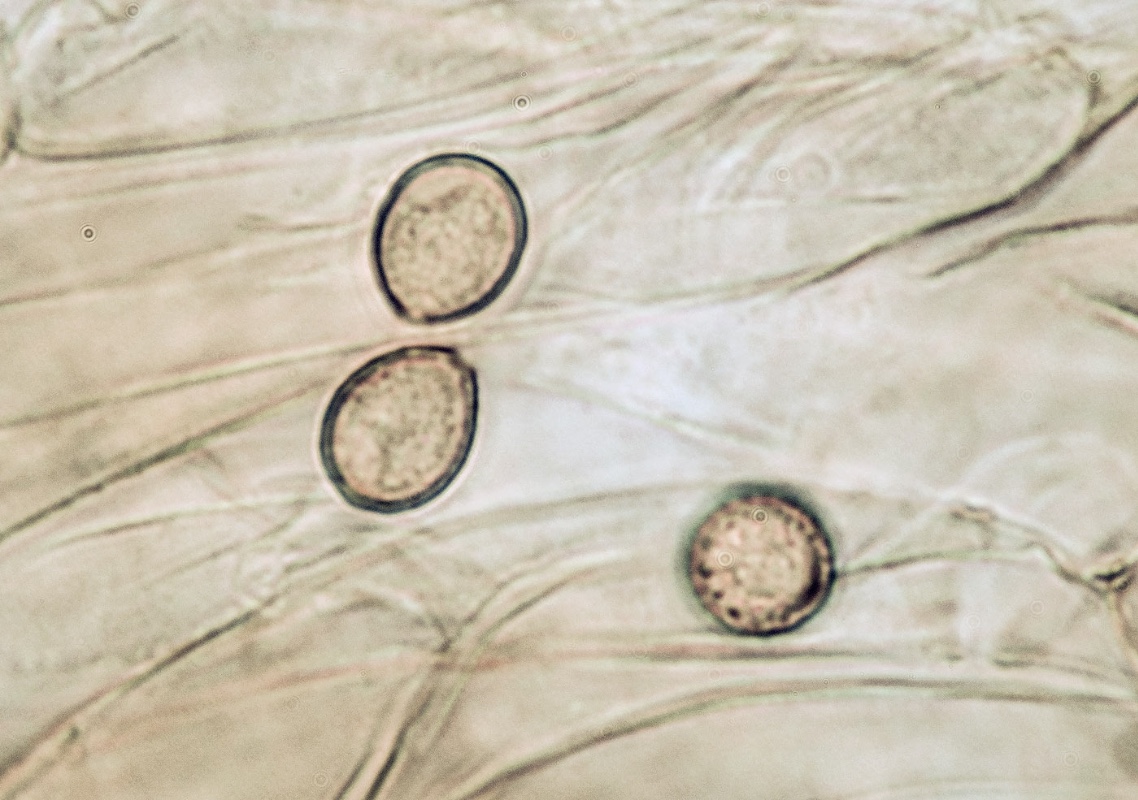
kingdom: Fungi
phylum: Basidiomycota
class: Agaricomycetes
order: Agaricales
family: Cortinariaceae
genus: Aureonarius
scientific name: Aureonarius limonius
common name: orangegul slørhat
